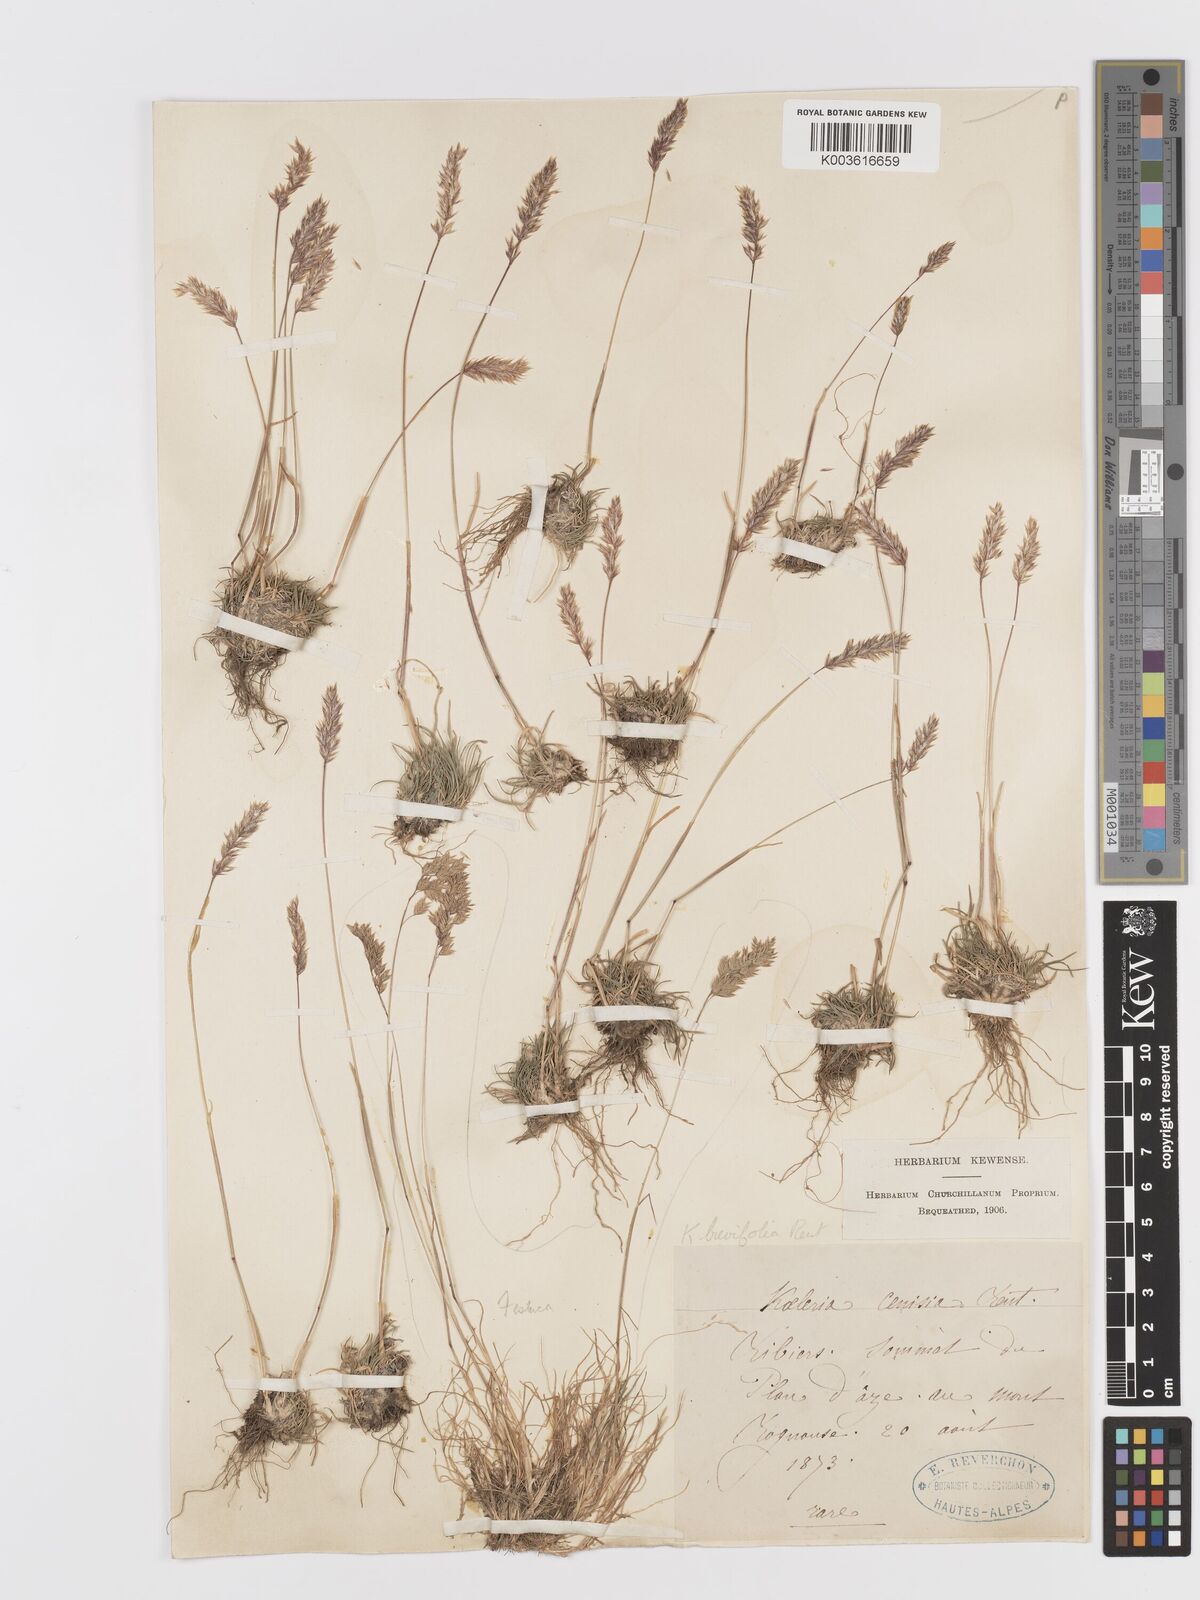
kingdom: Plantae
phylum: Tracheophyta
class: Liliopsida
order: Poales
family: Poaceae
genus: Koeleria
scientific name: Koeleria cenisia
